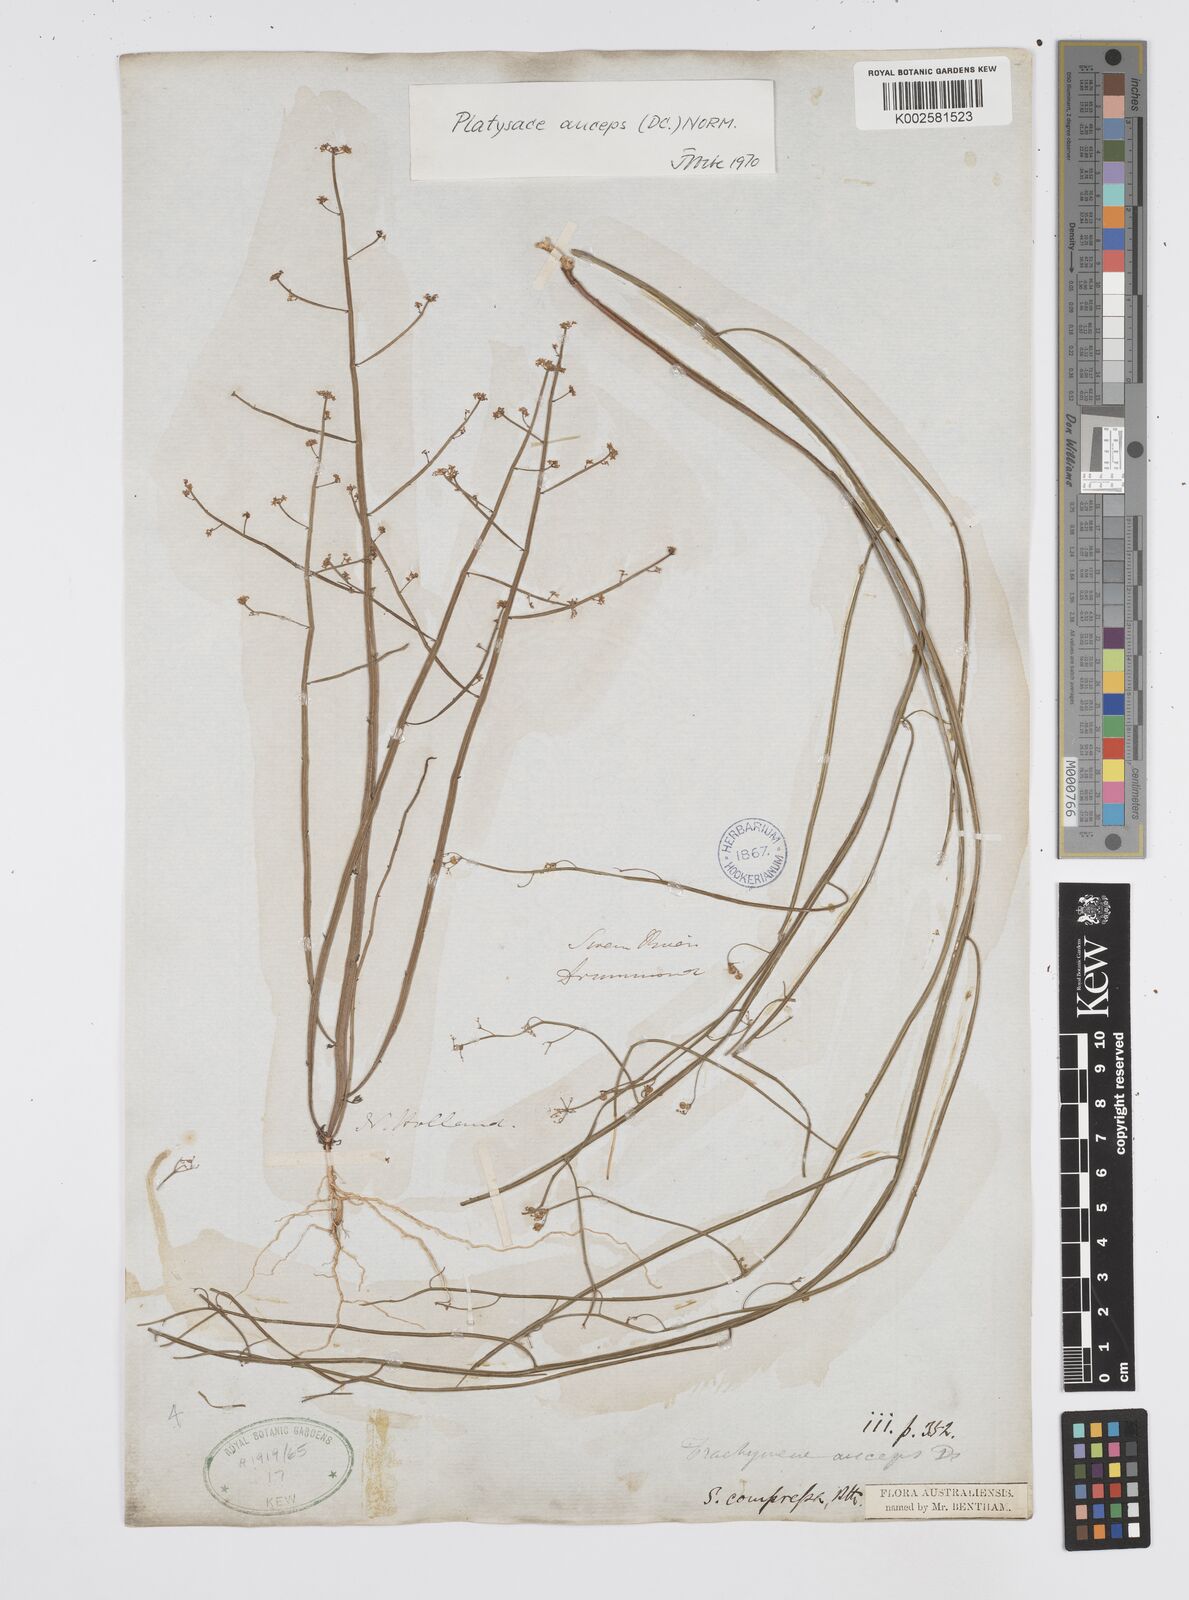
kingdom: Plantae
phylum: Tracheophyta
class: Magnoliopsida
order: Apiales
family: Apiaceae
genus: Centella
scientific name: Centella
